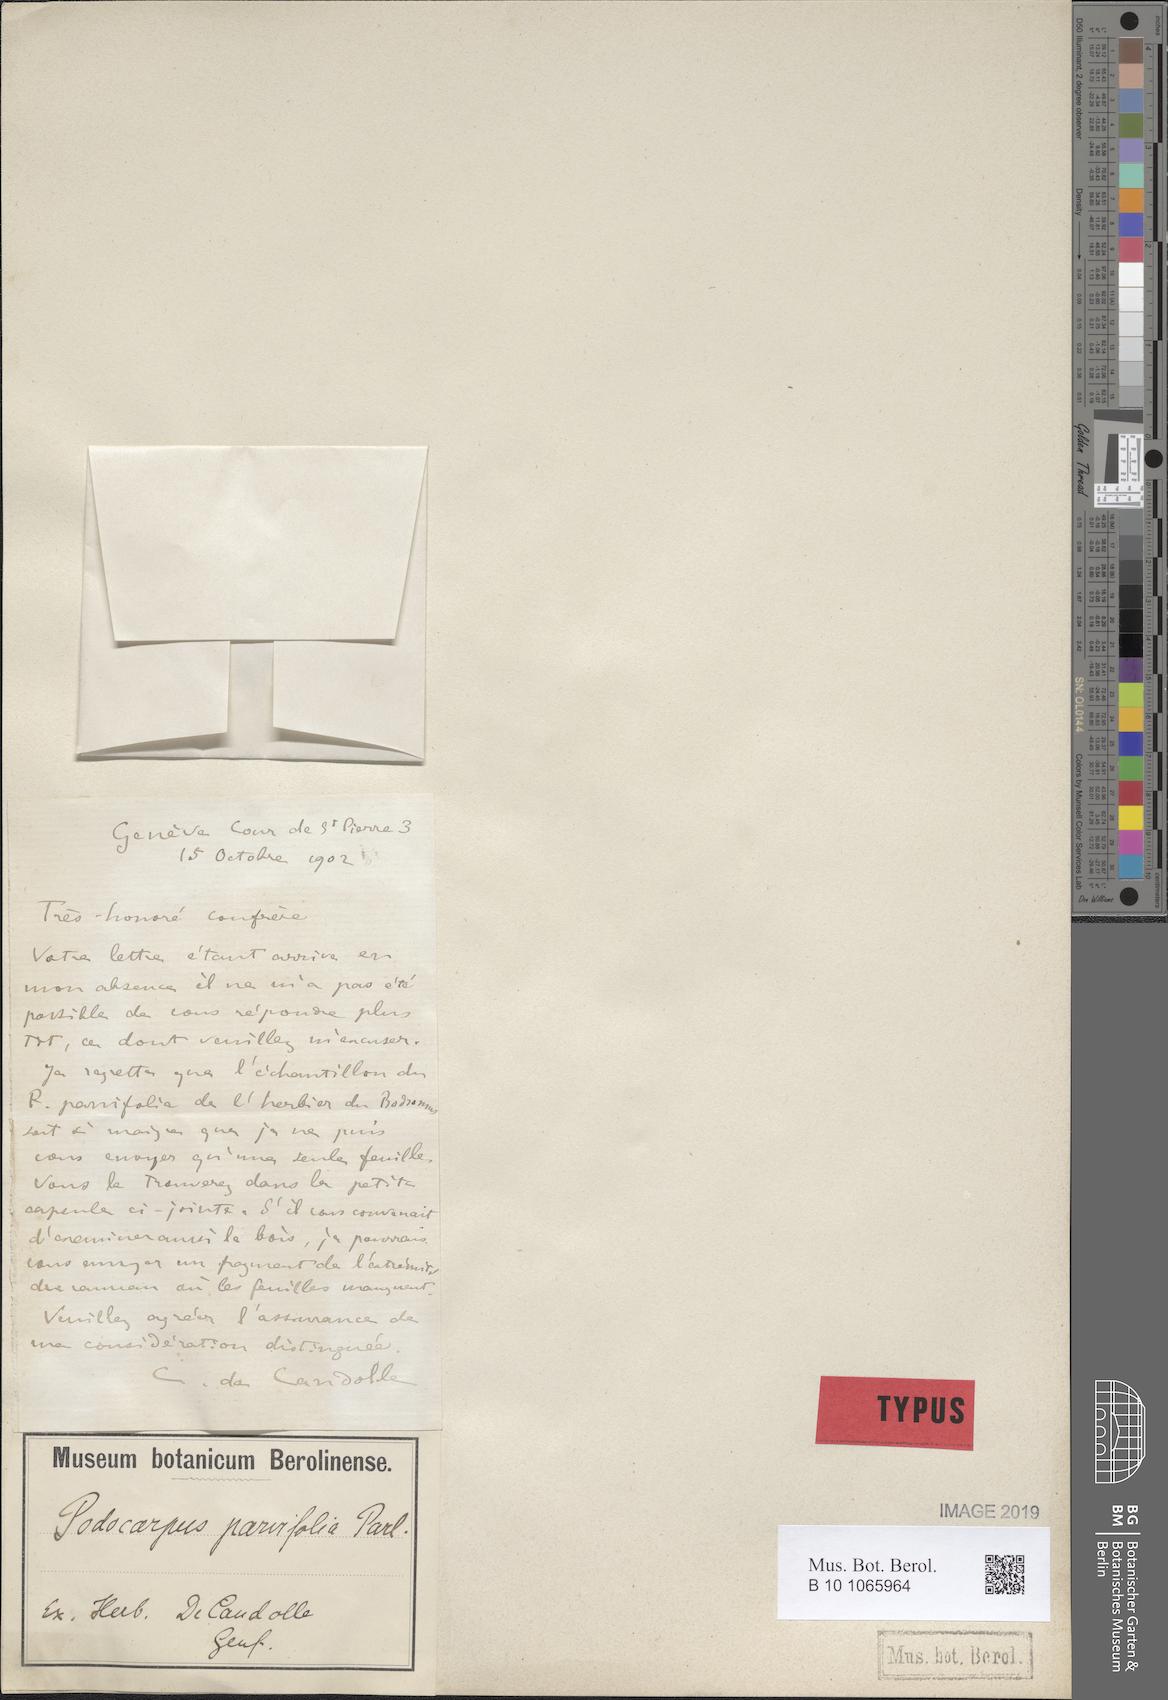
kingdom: Plantae
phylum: Tracheophyta
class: Pinopsida
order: Pinales
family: Podocarpaceae
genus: Podocarpus
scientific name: Podocarpus lawrencei
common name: Mountain plum pine
